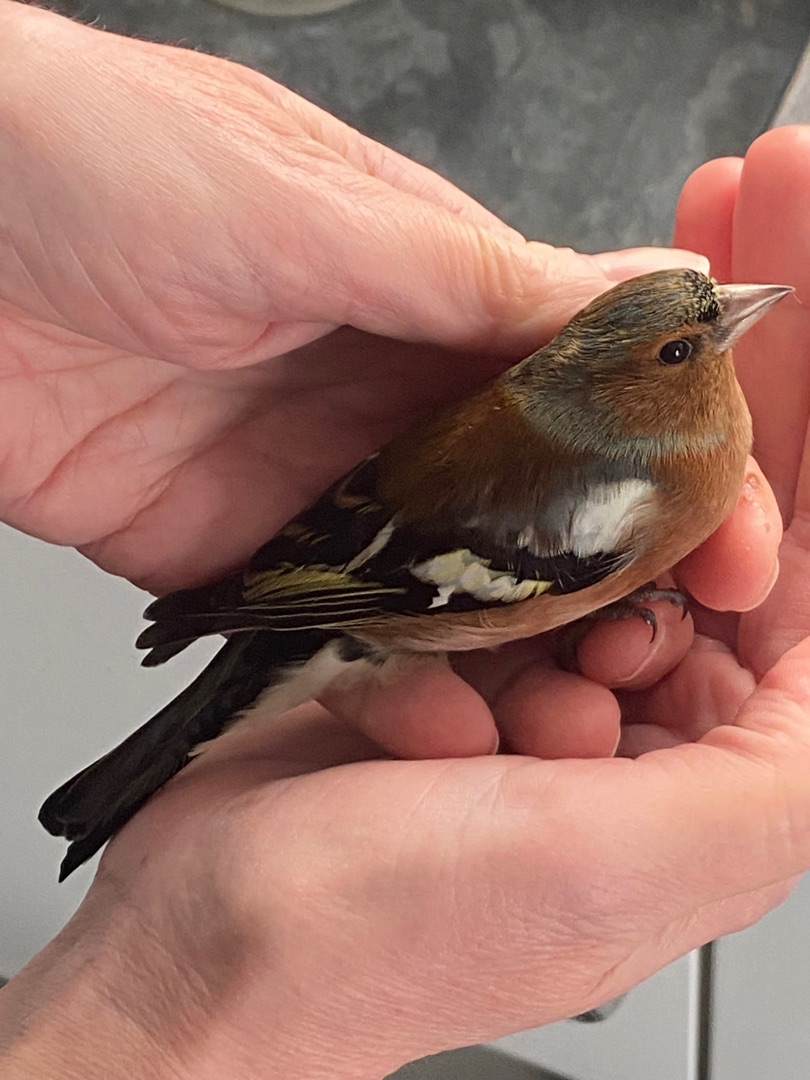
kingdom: Animalia
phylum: Chordata
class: Aves
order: Passeriformes
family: Fringillidae
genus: Fringilla
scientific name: Fringilla coelebs
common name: Bogfinke
